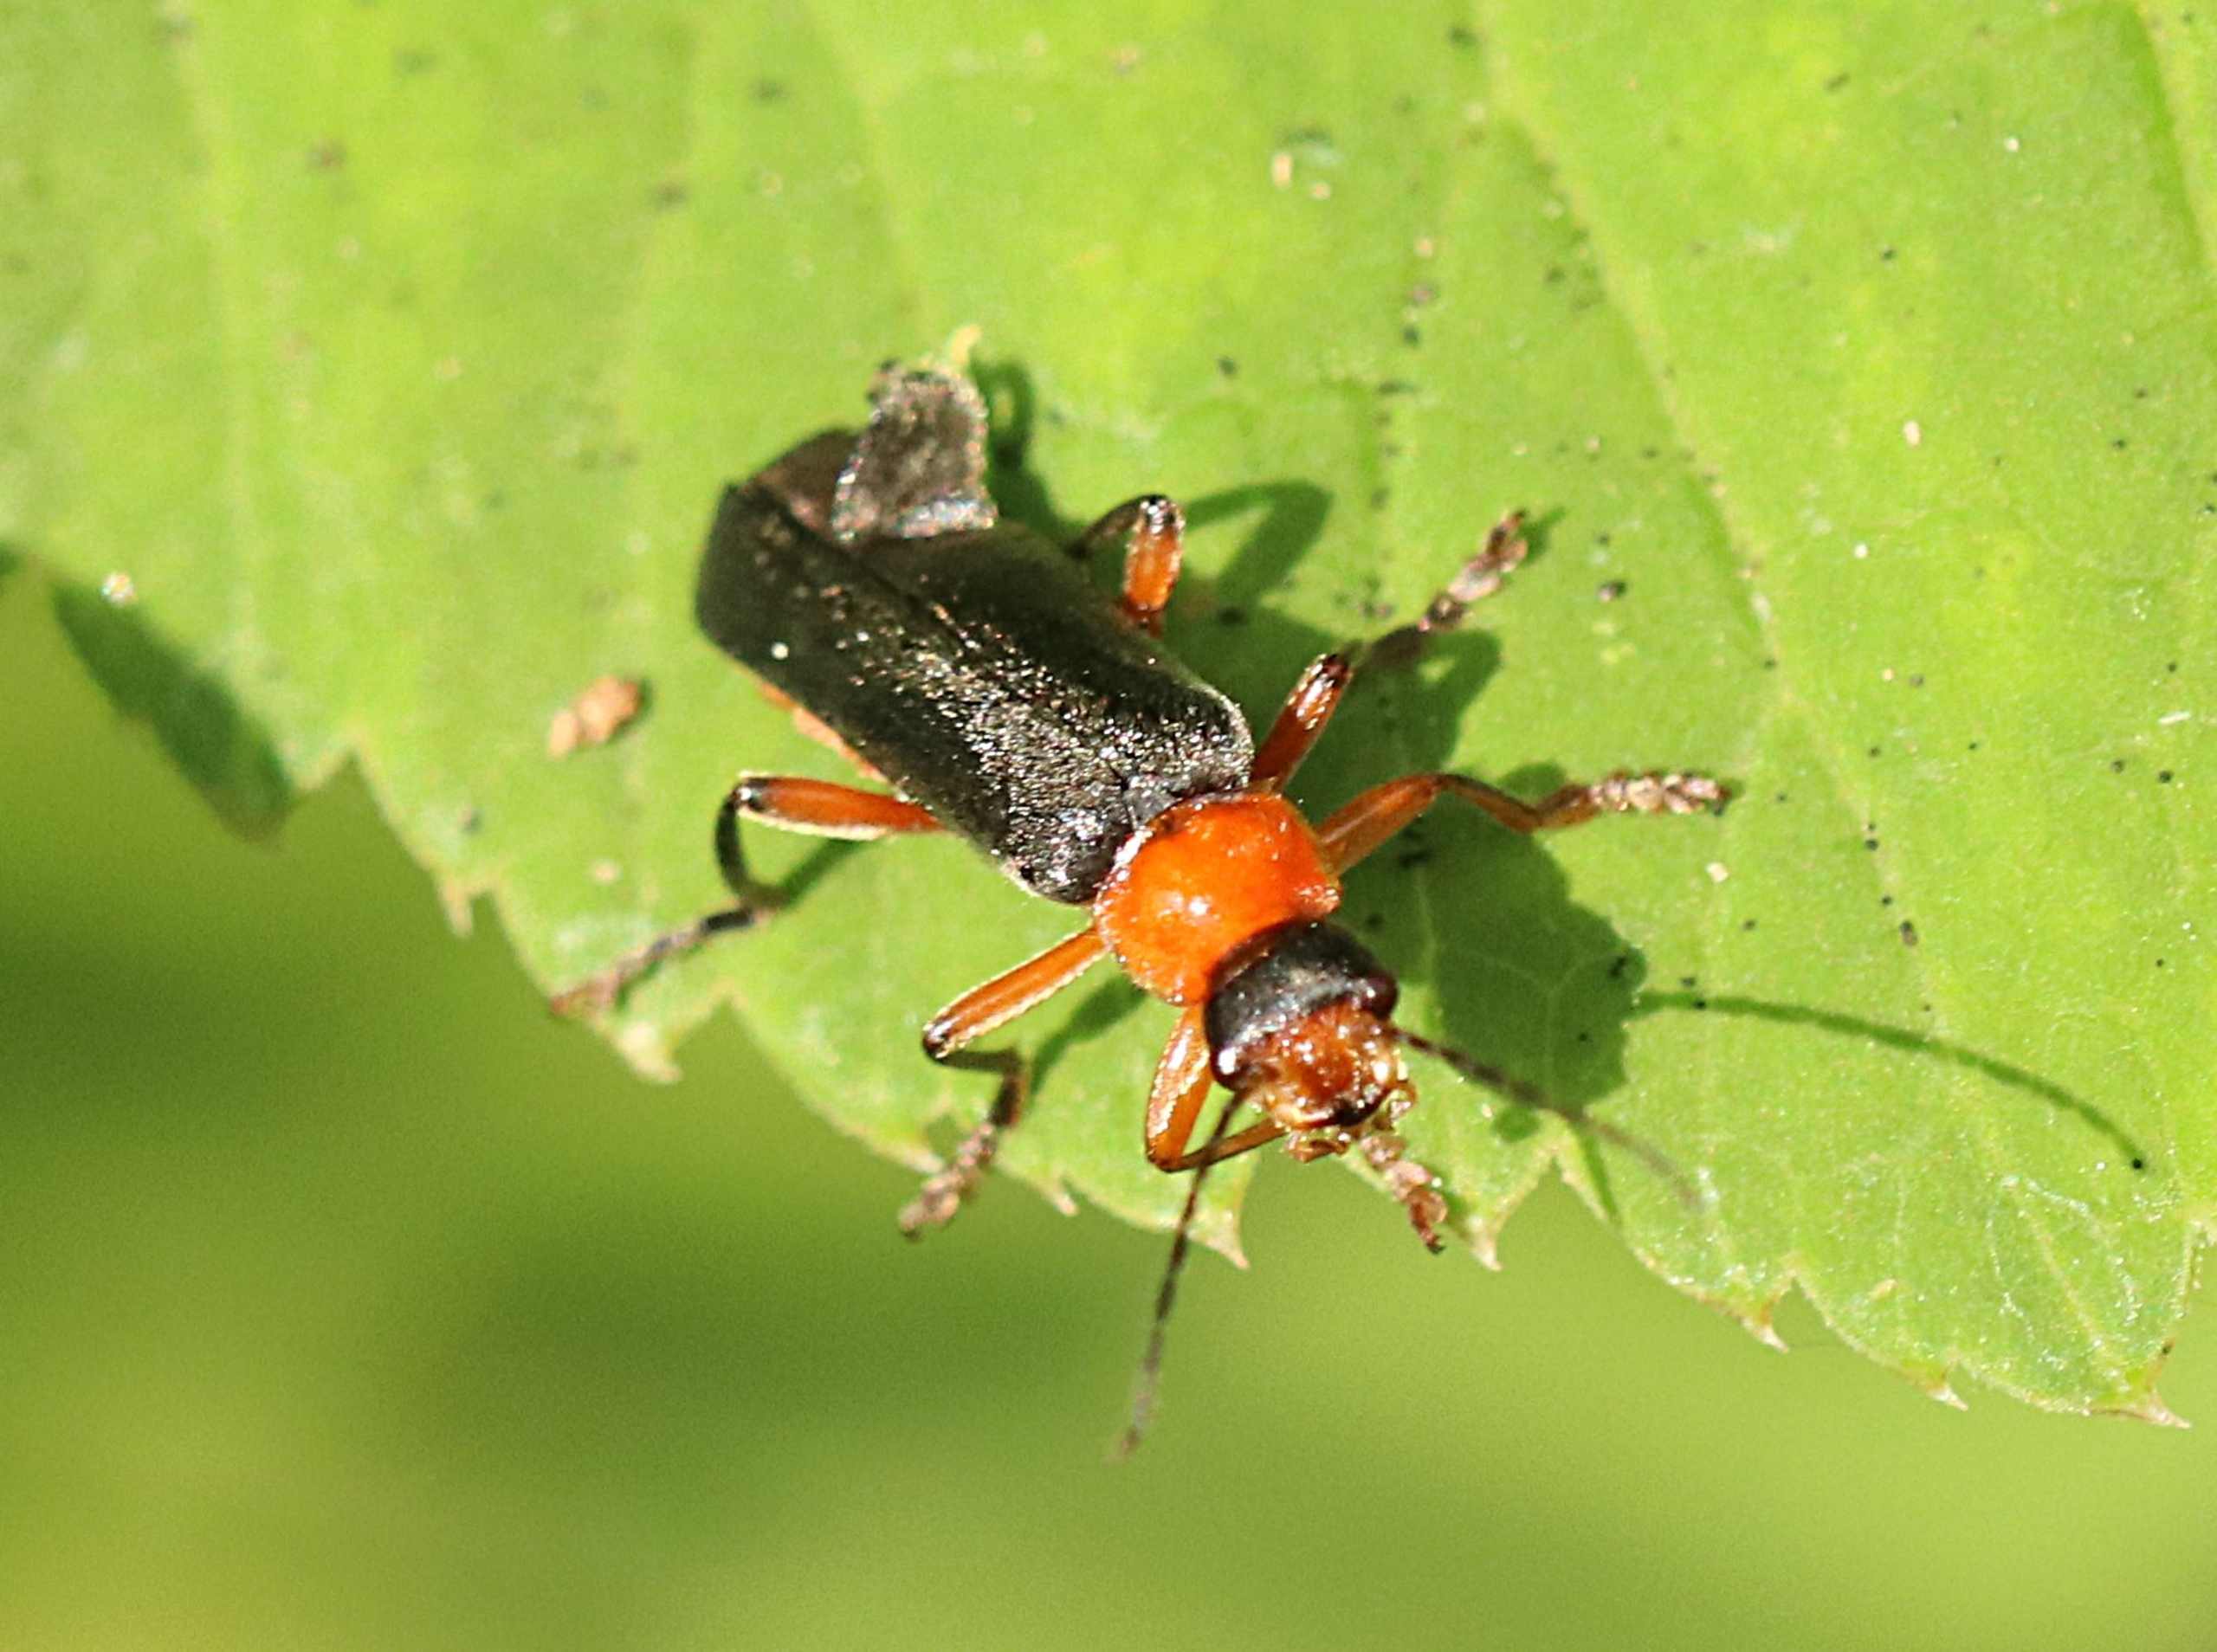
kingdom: Animalia
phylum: Arthropoda
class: Insecta
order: Coleoptera
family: Cantharidae
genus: Cantharis
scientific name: Cantharis pellucida
